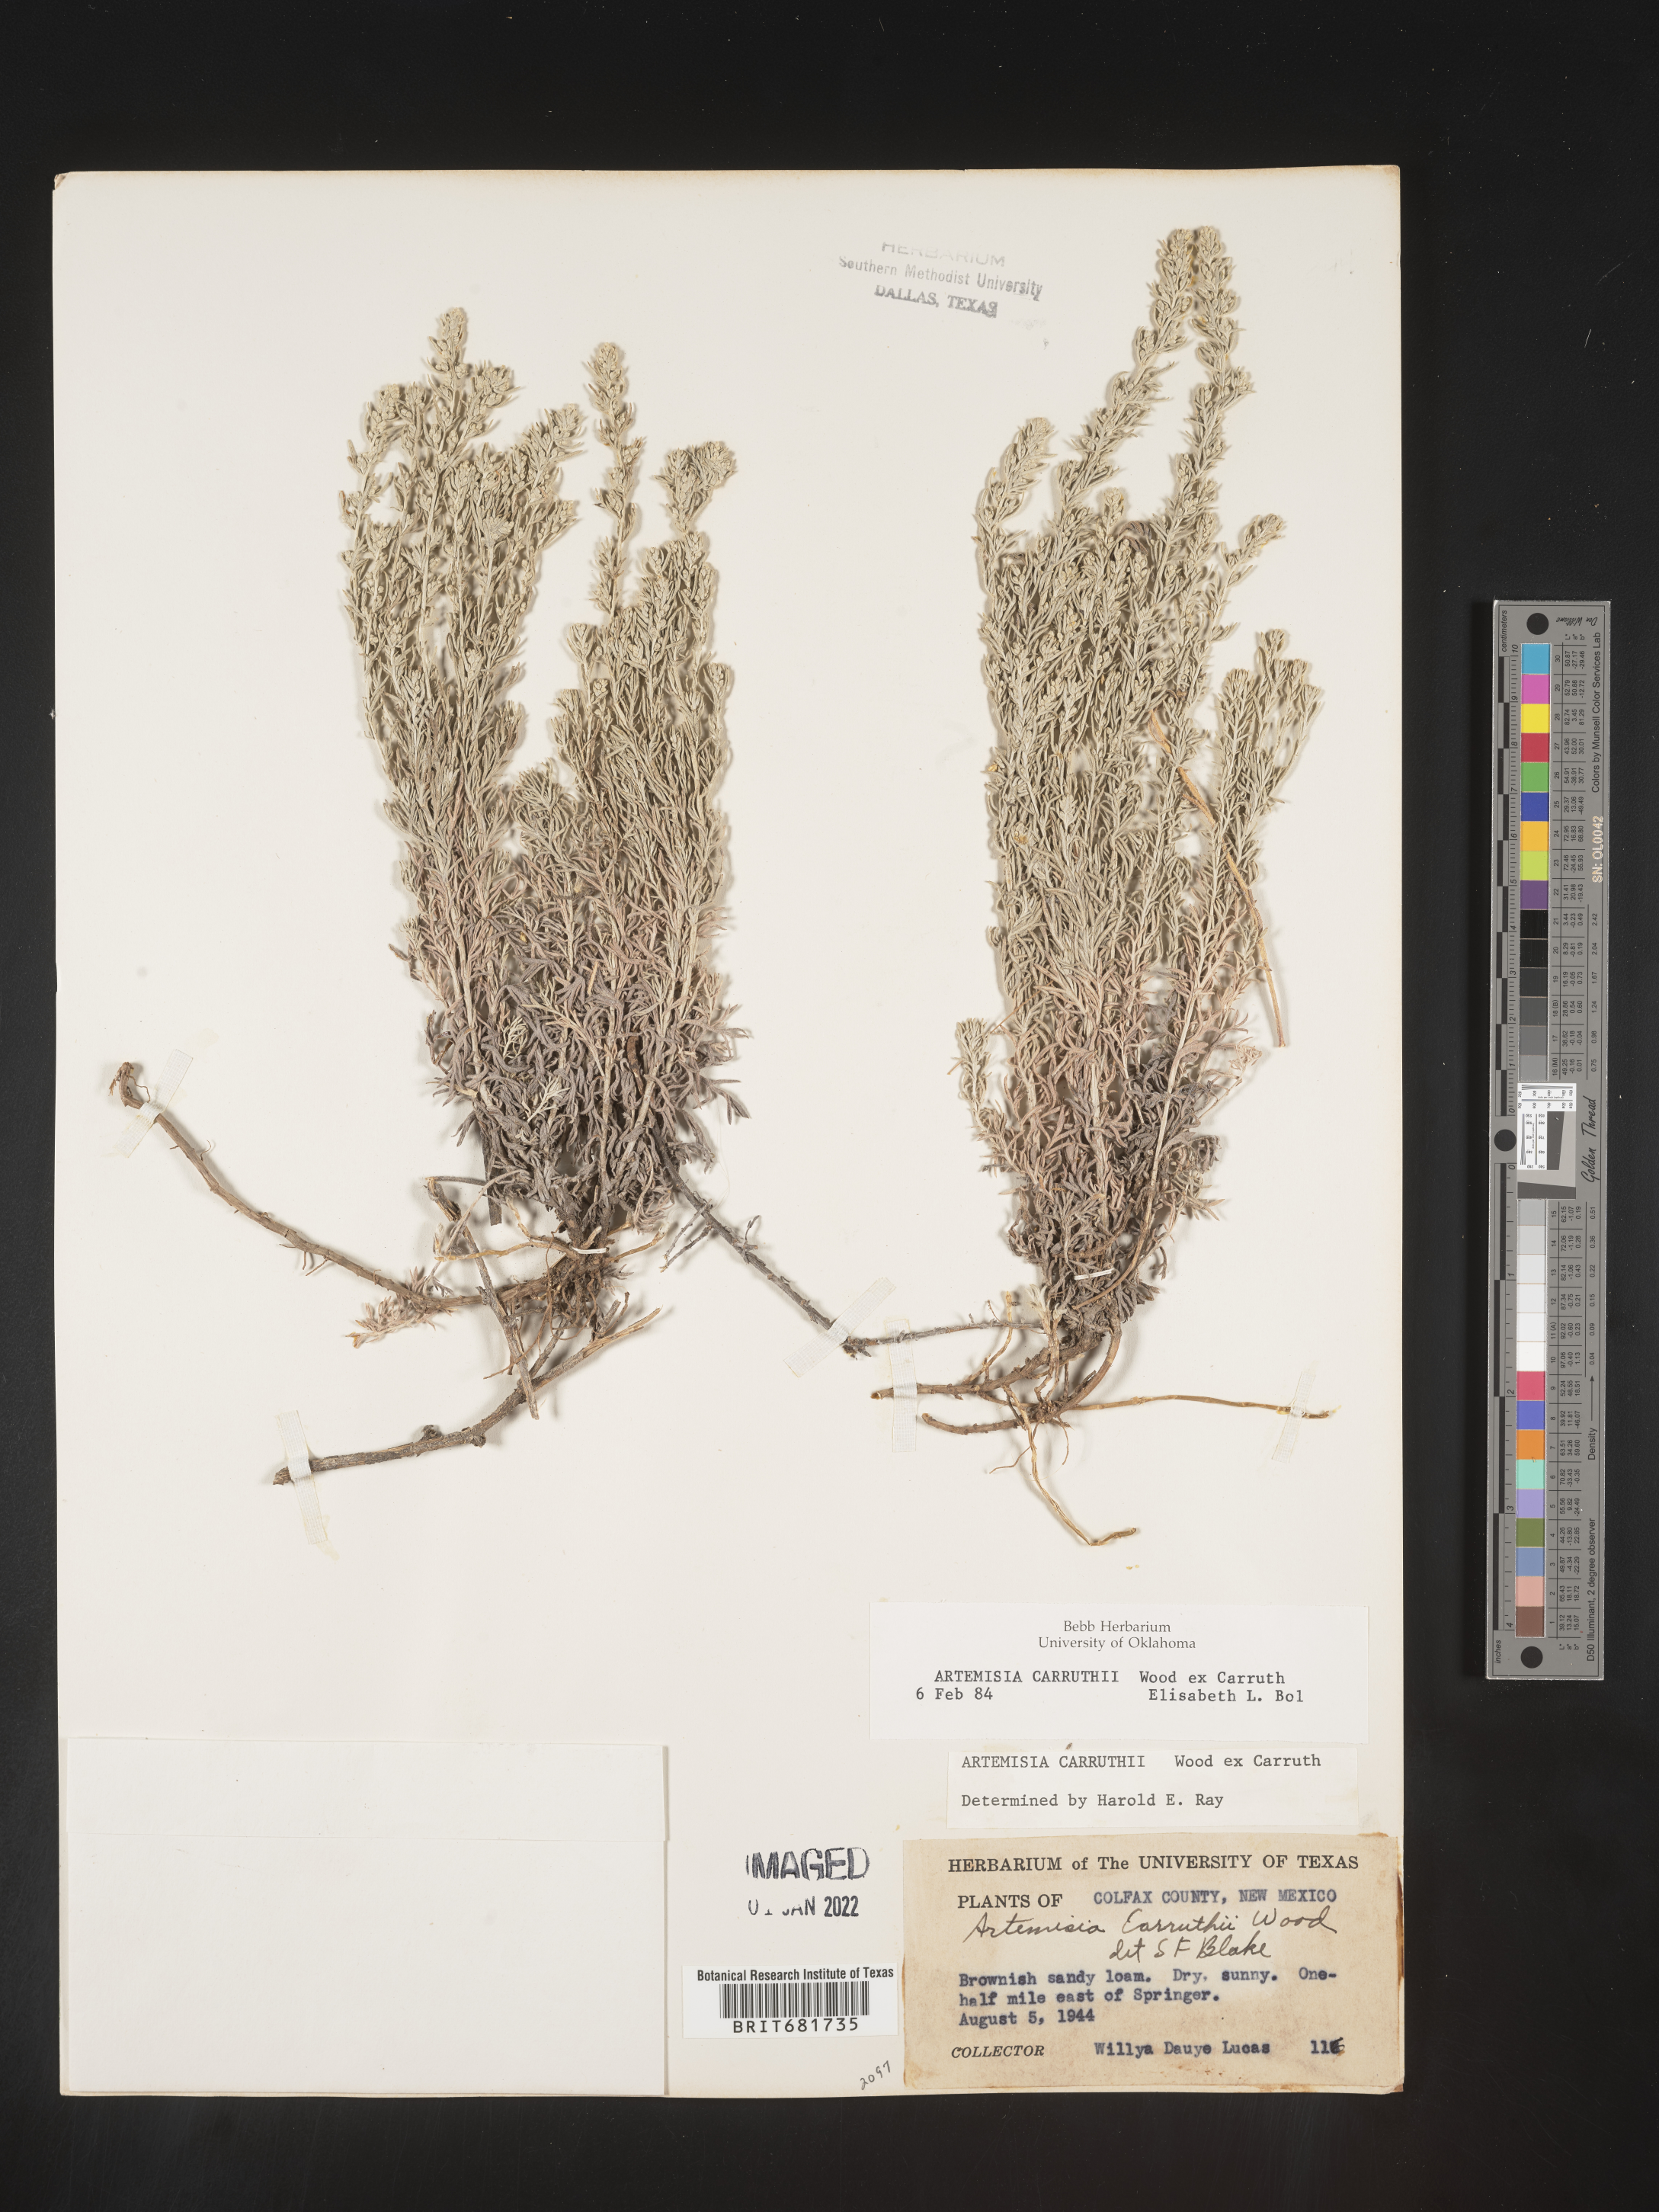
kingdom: Plantae
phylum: Tracheophyta
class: Magnoliopsida
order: Asterales
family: Asteraceae
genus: Artemisia
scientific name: Artemisia carruthii
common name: Carruth wormwood
